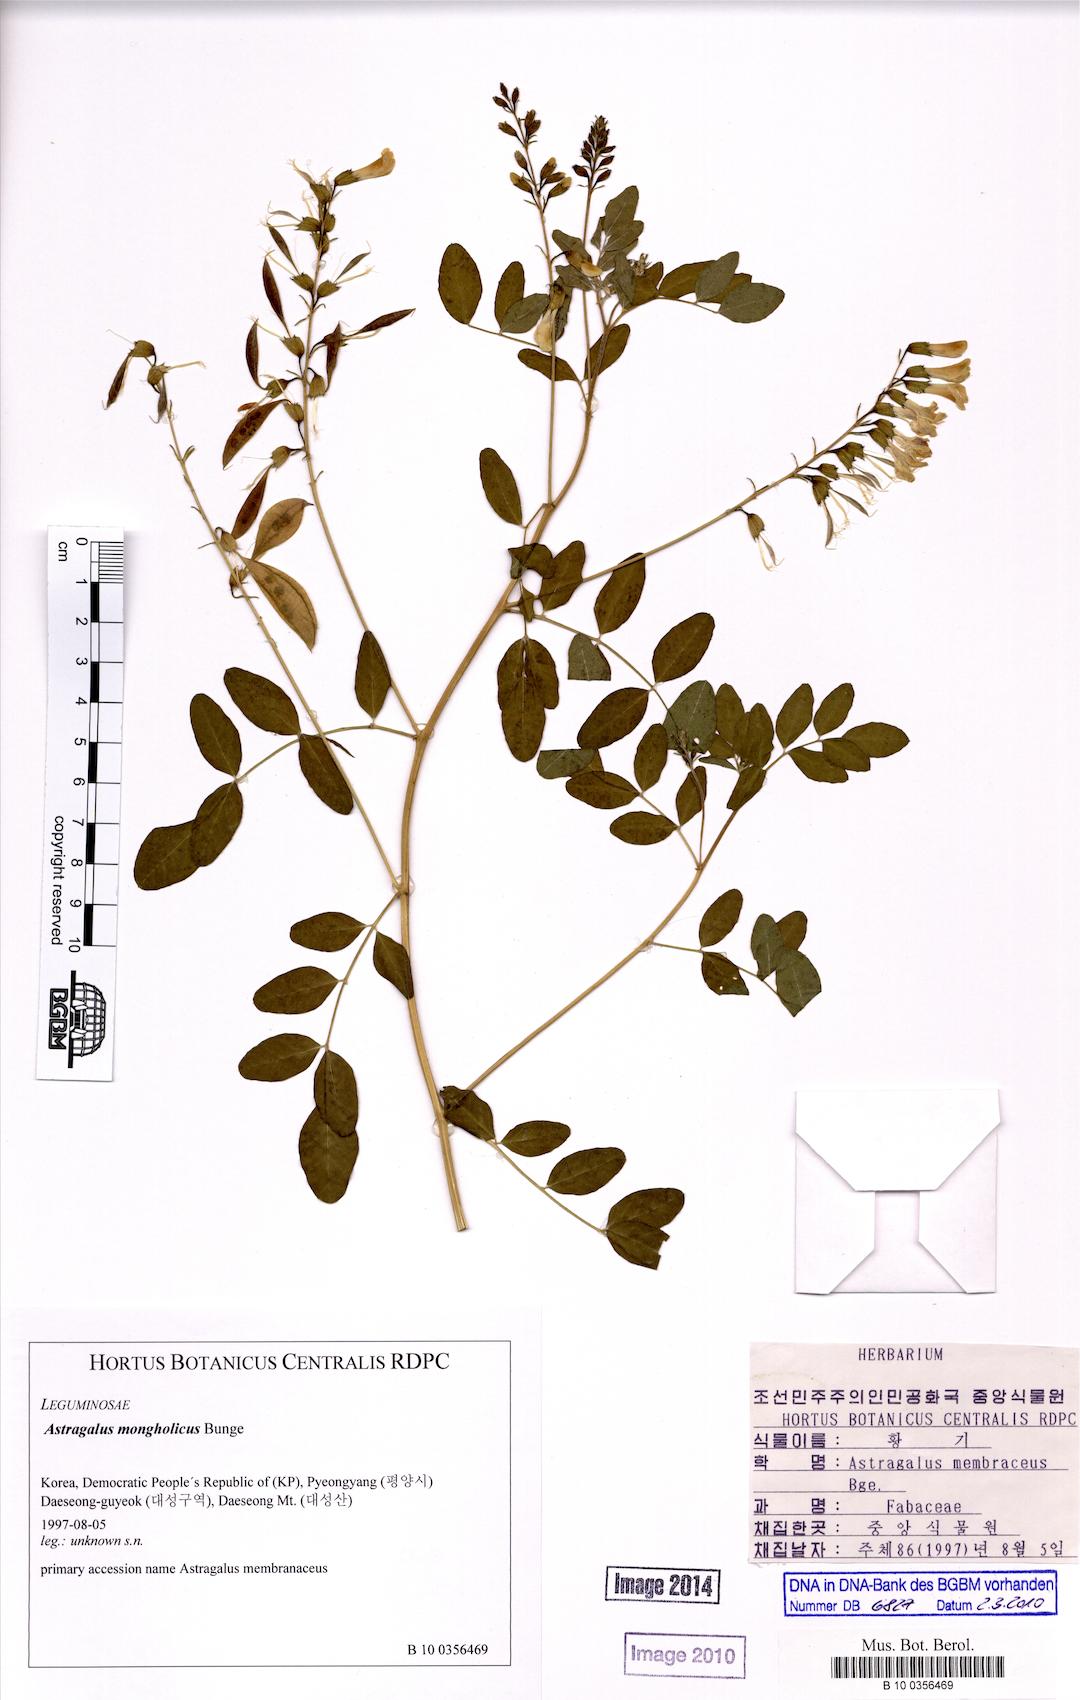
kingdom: Plantae
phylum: Tracheophyta
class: Magnoliopsida
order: Fabales
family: Fabaceae
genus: Astragalus
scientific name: Astragalus mongholicus
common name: Membranous milk-vetch
